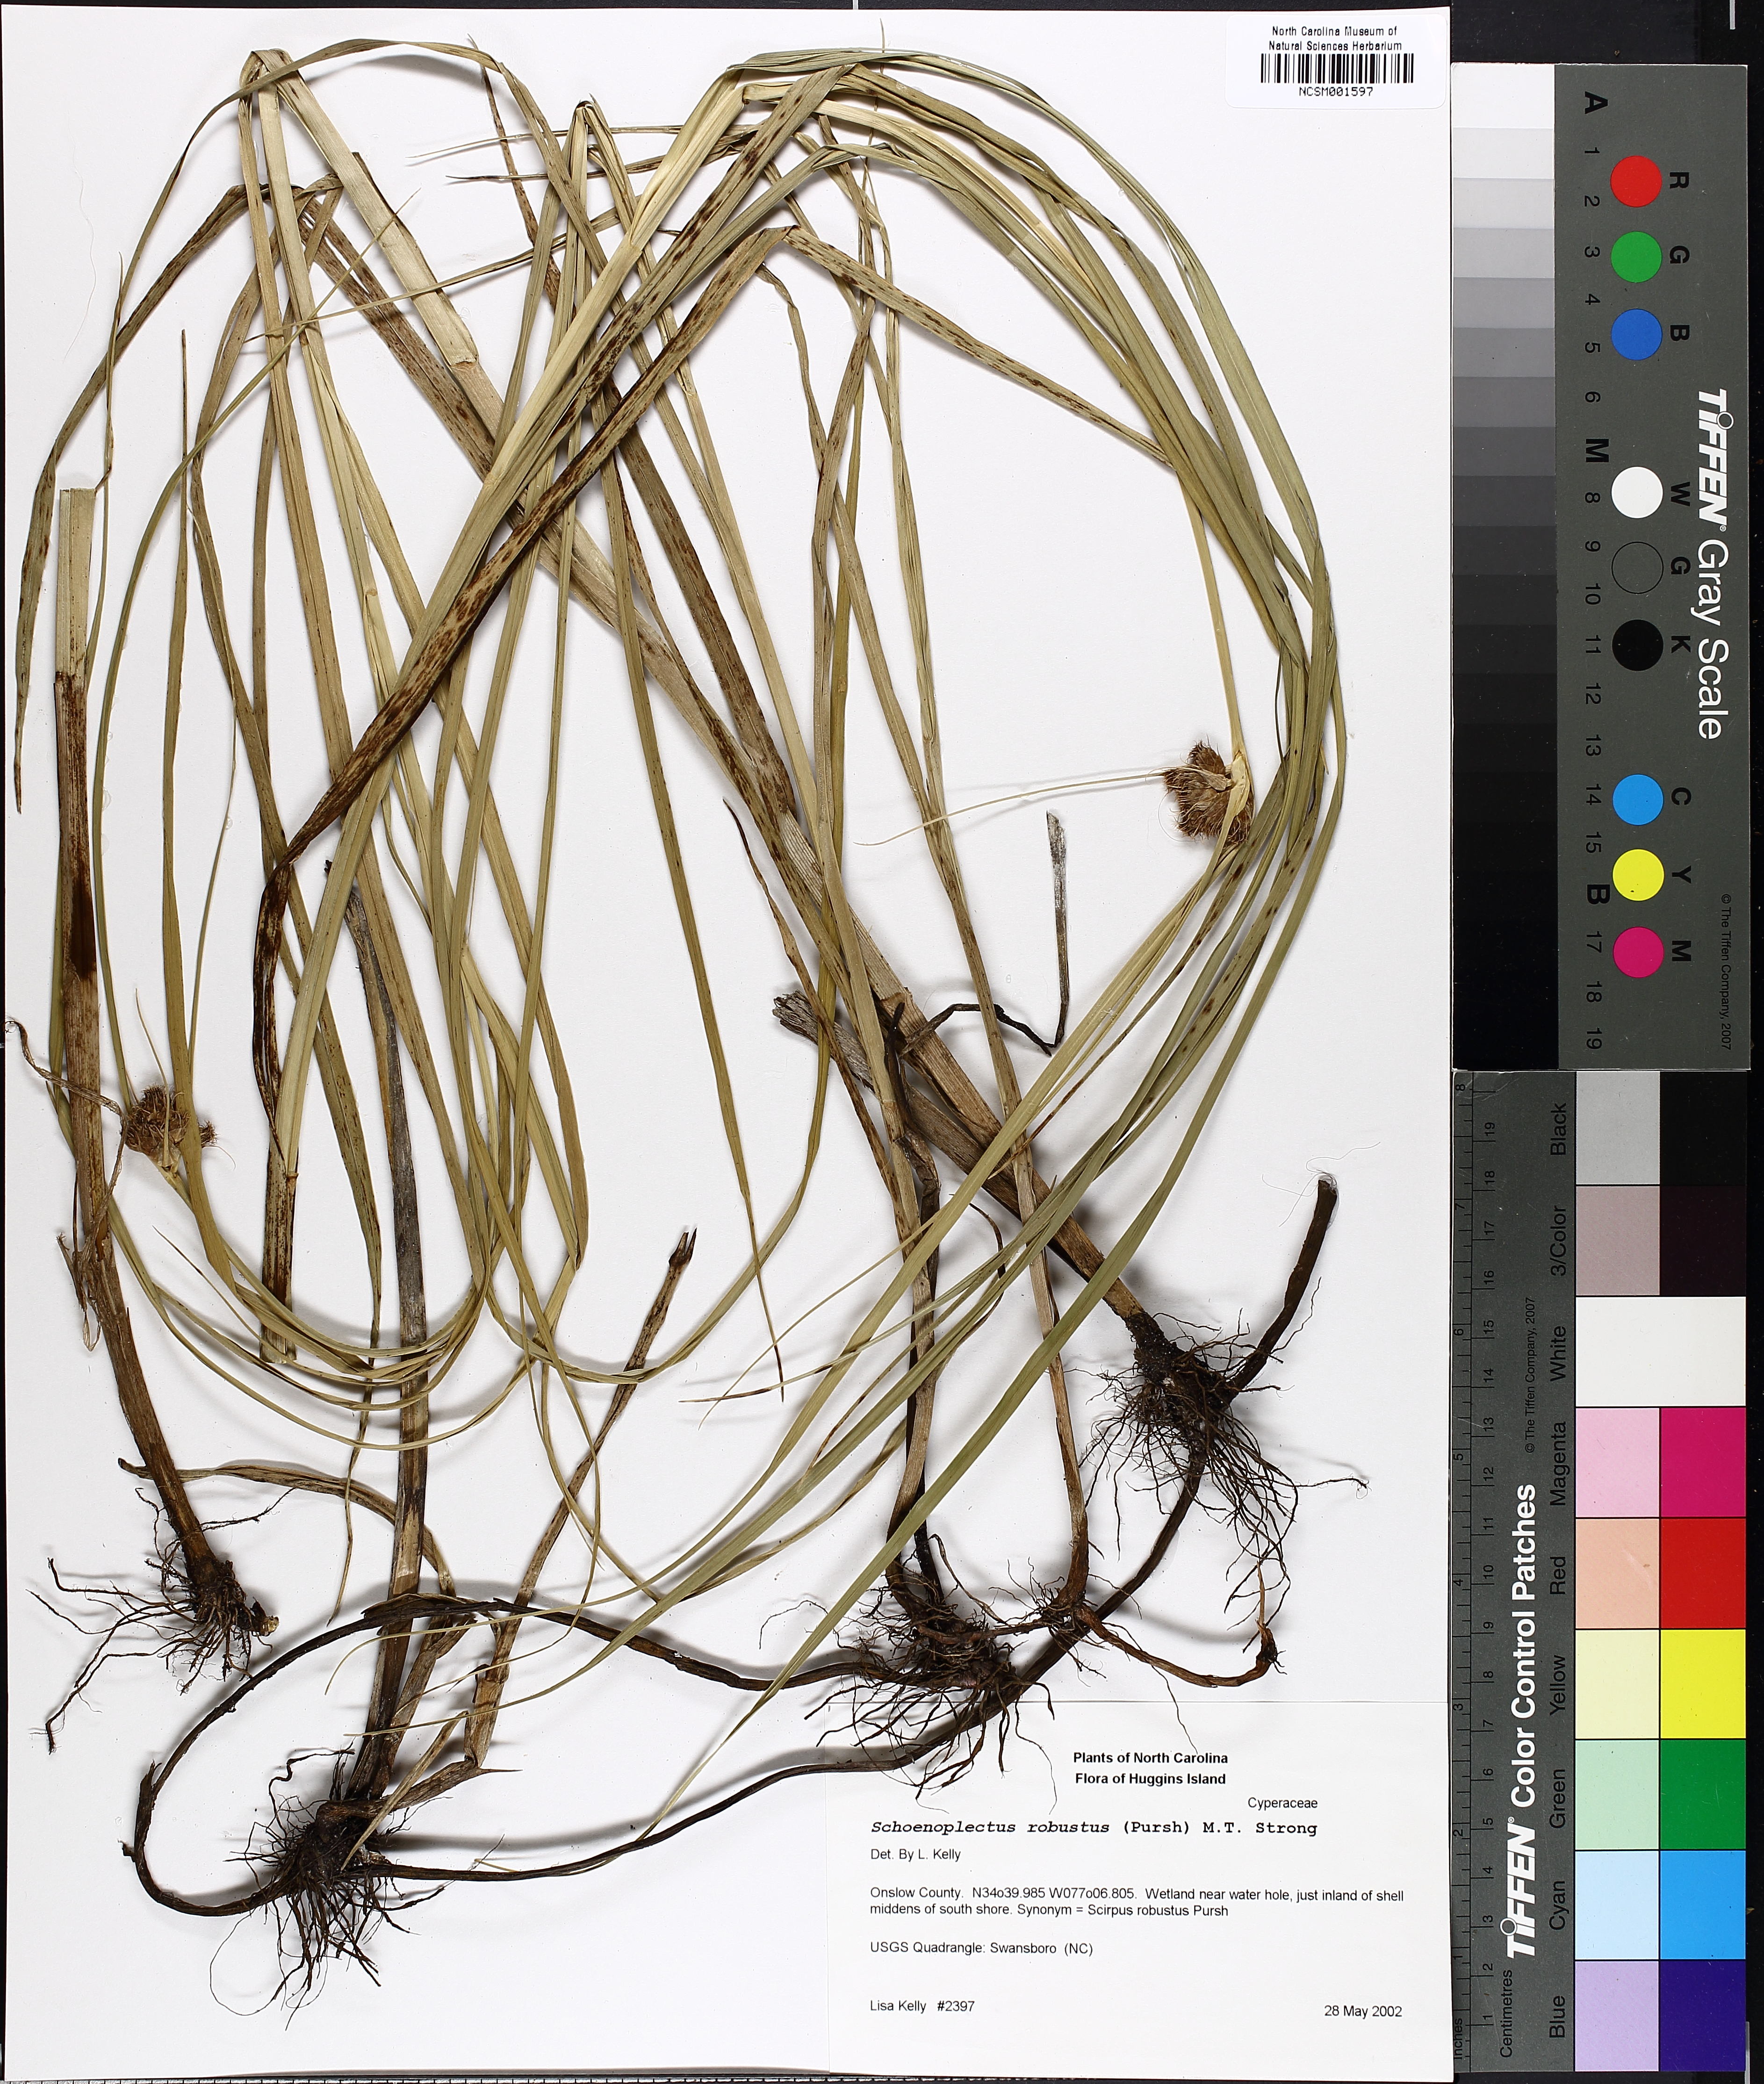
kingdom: Plantae
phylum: Tracheophyta
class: Liliopsida
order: Poales
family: Cyperaceae
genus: Bolboschoenus
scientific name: Bolboschoenus robustus
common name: Seacoast bulrush
